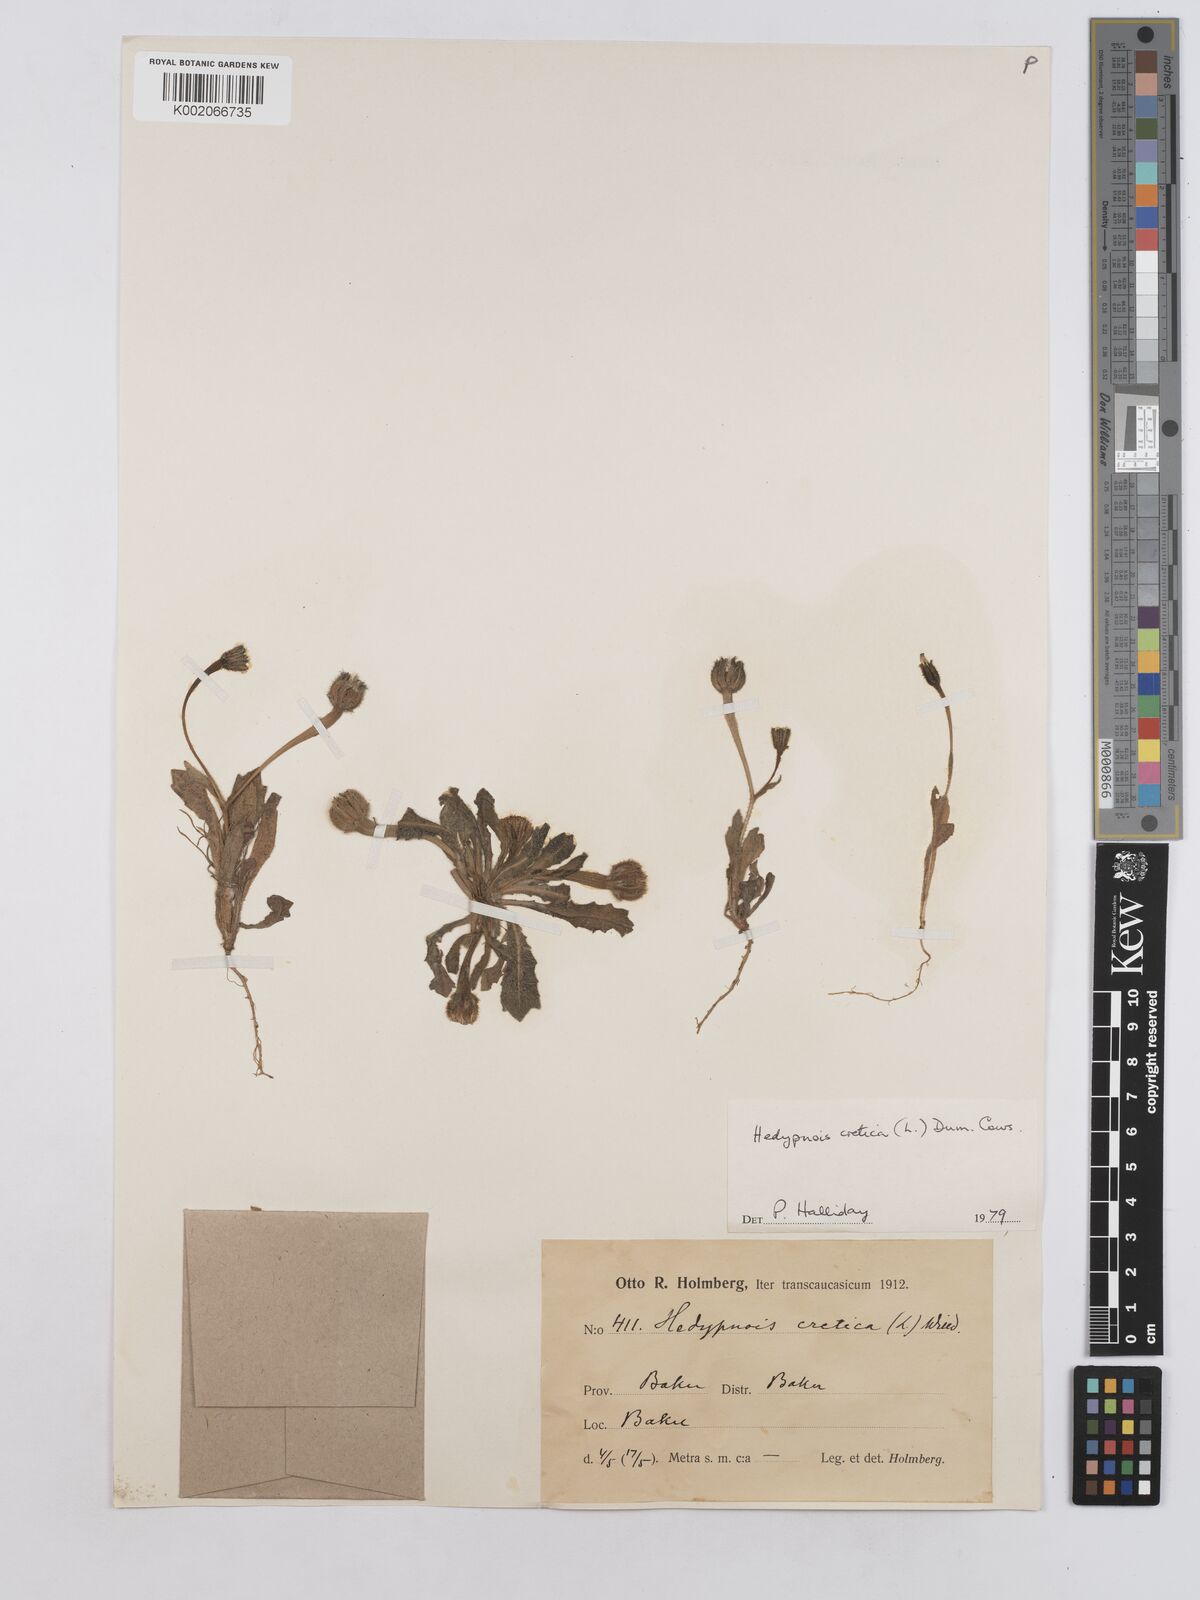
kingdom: Plantae
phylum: Tracheophyta
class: Magnoliopsida
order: Asterales
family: Asteraceae
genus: Hedypnois
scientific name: Hedypnois cretica
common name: Scaly hawkbit
